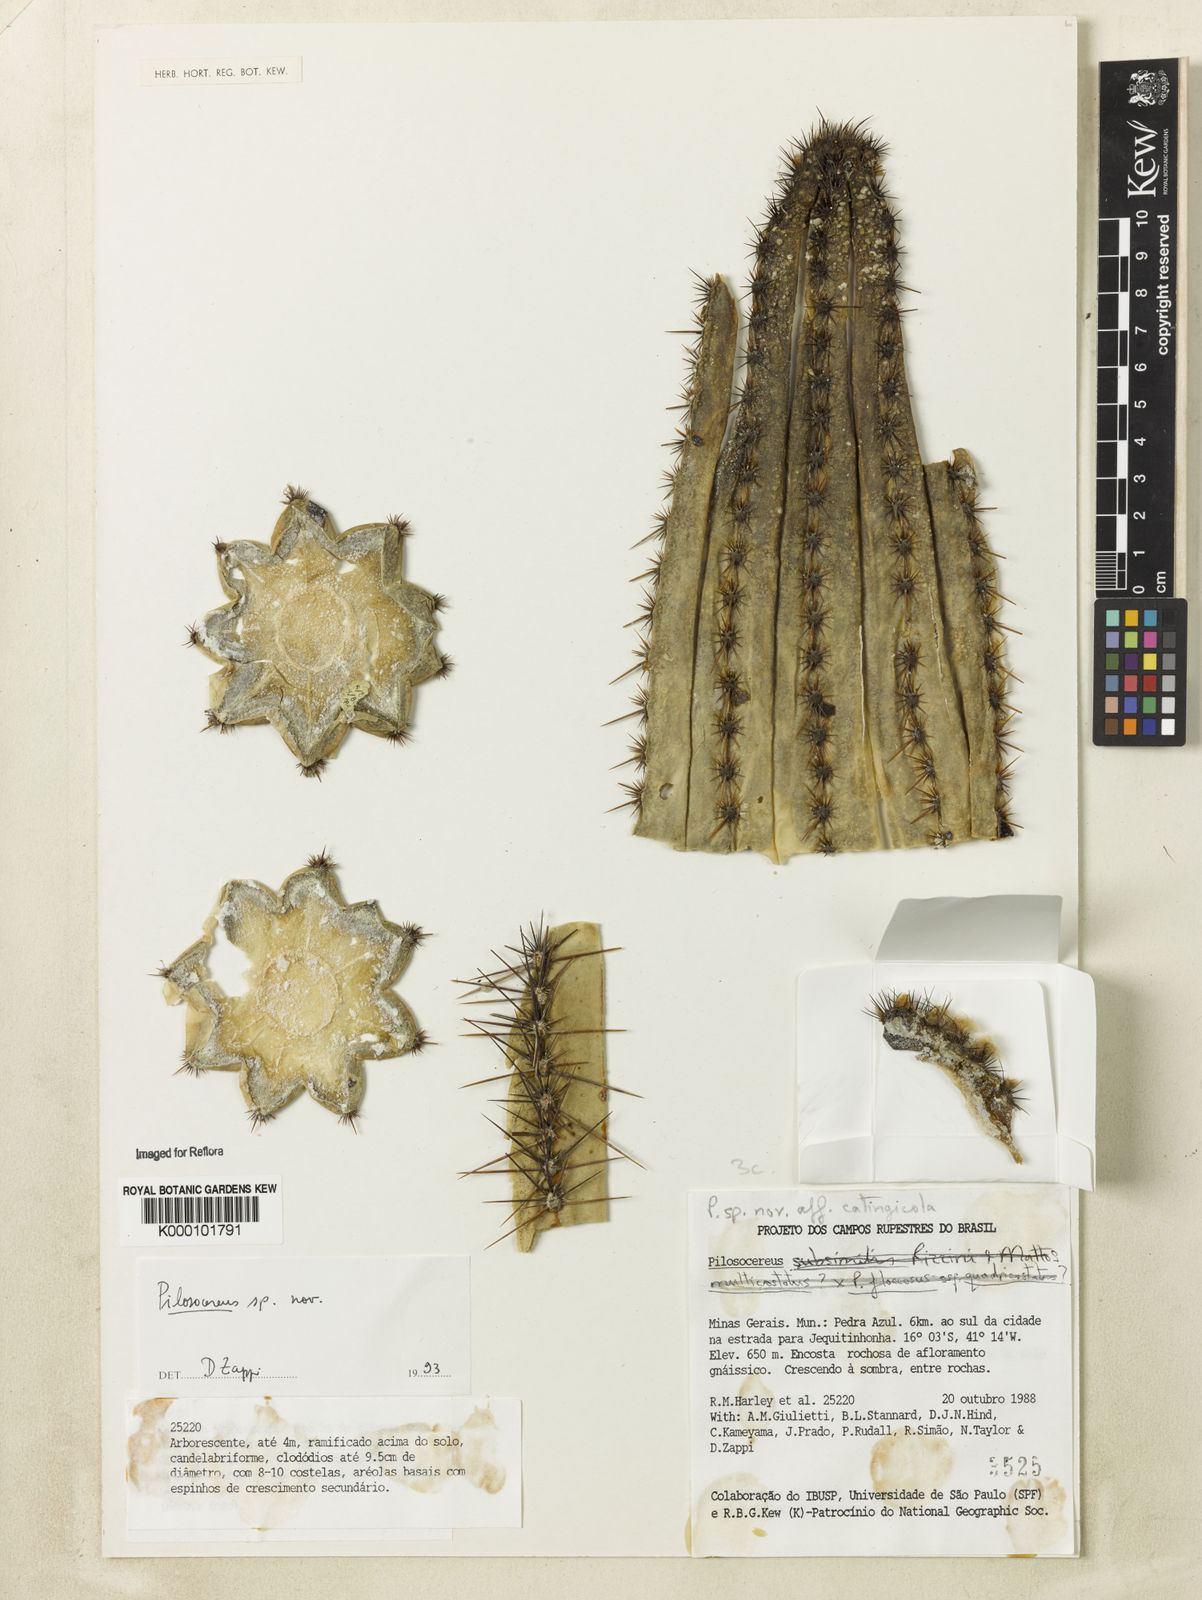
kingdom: Plantae
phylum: Tracheophyta
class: Magnoliopsida
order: Caryophyllales
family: Cactaceae
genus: Pilosocereus
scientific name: Pilosocereus
